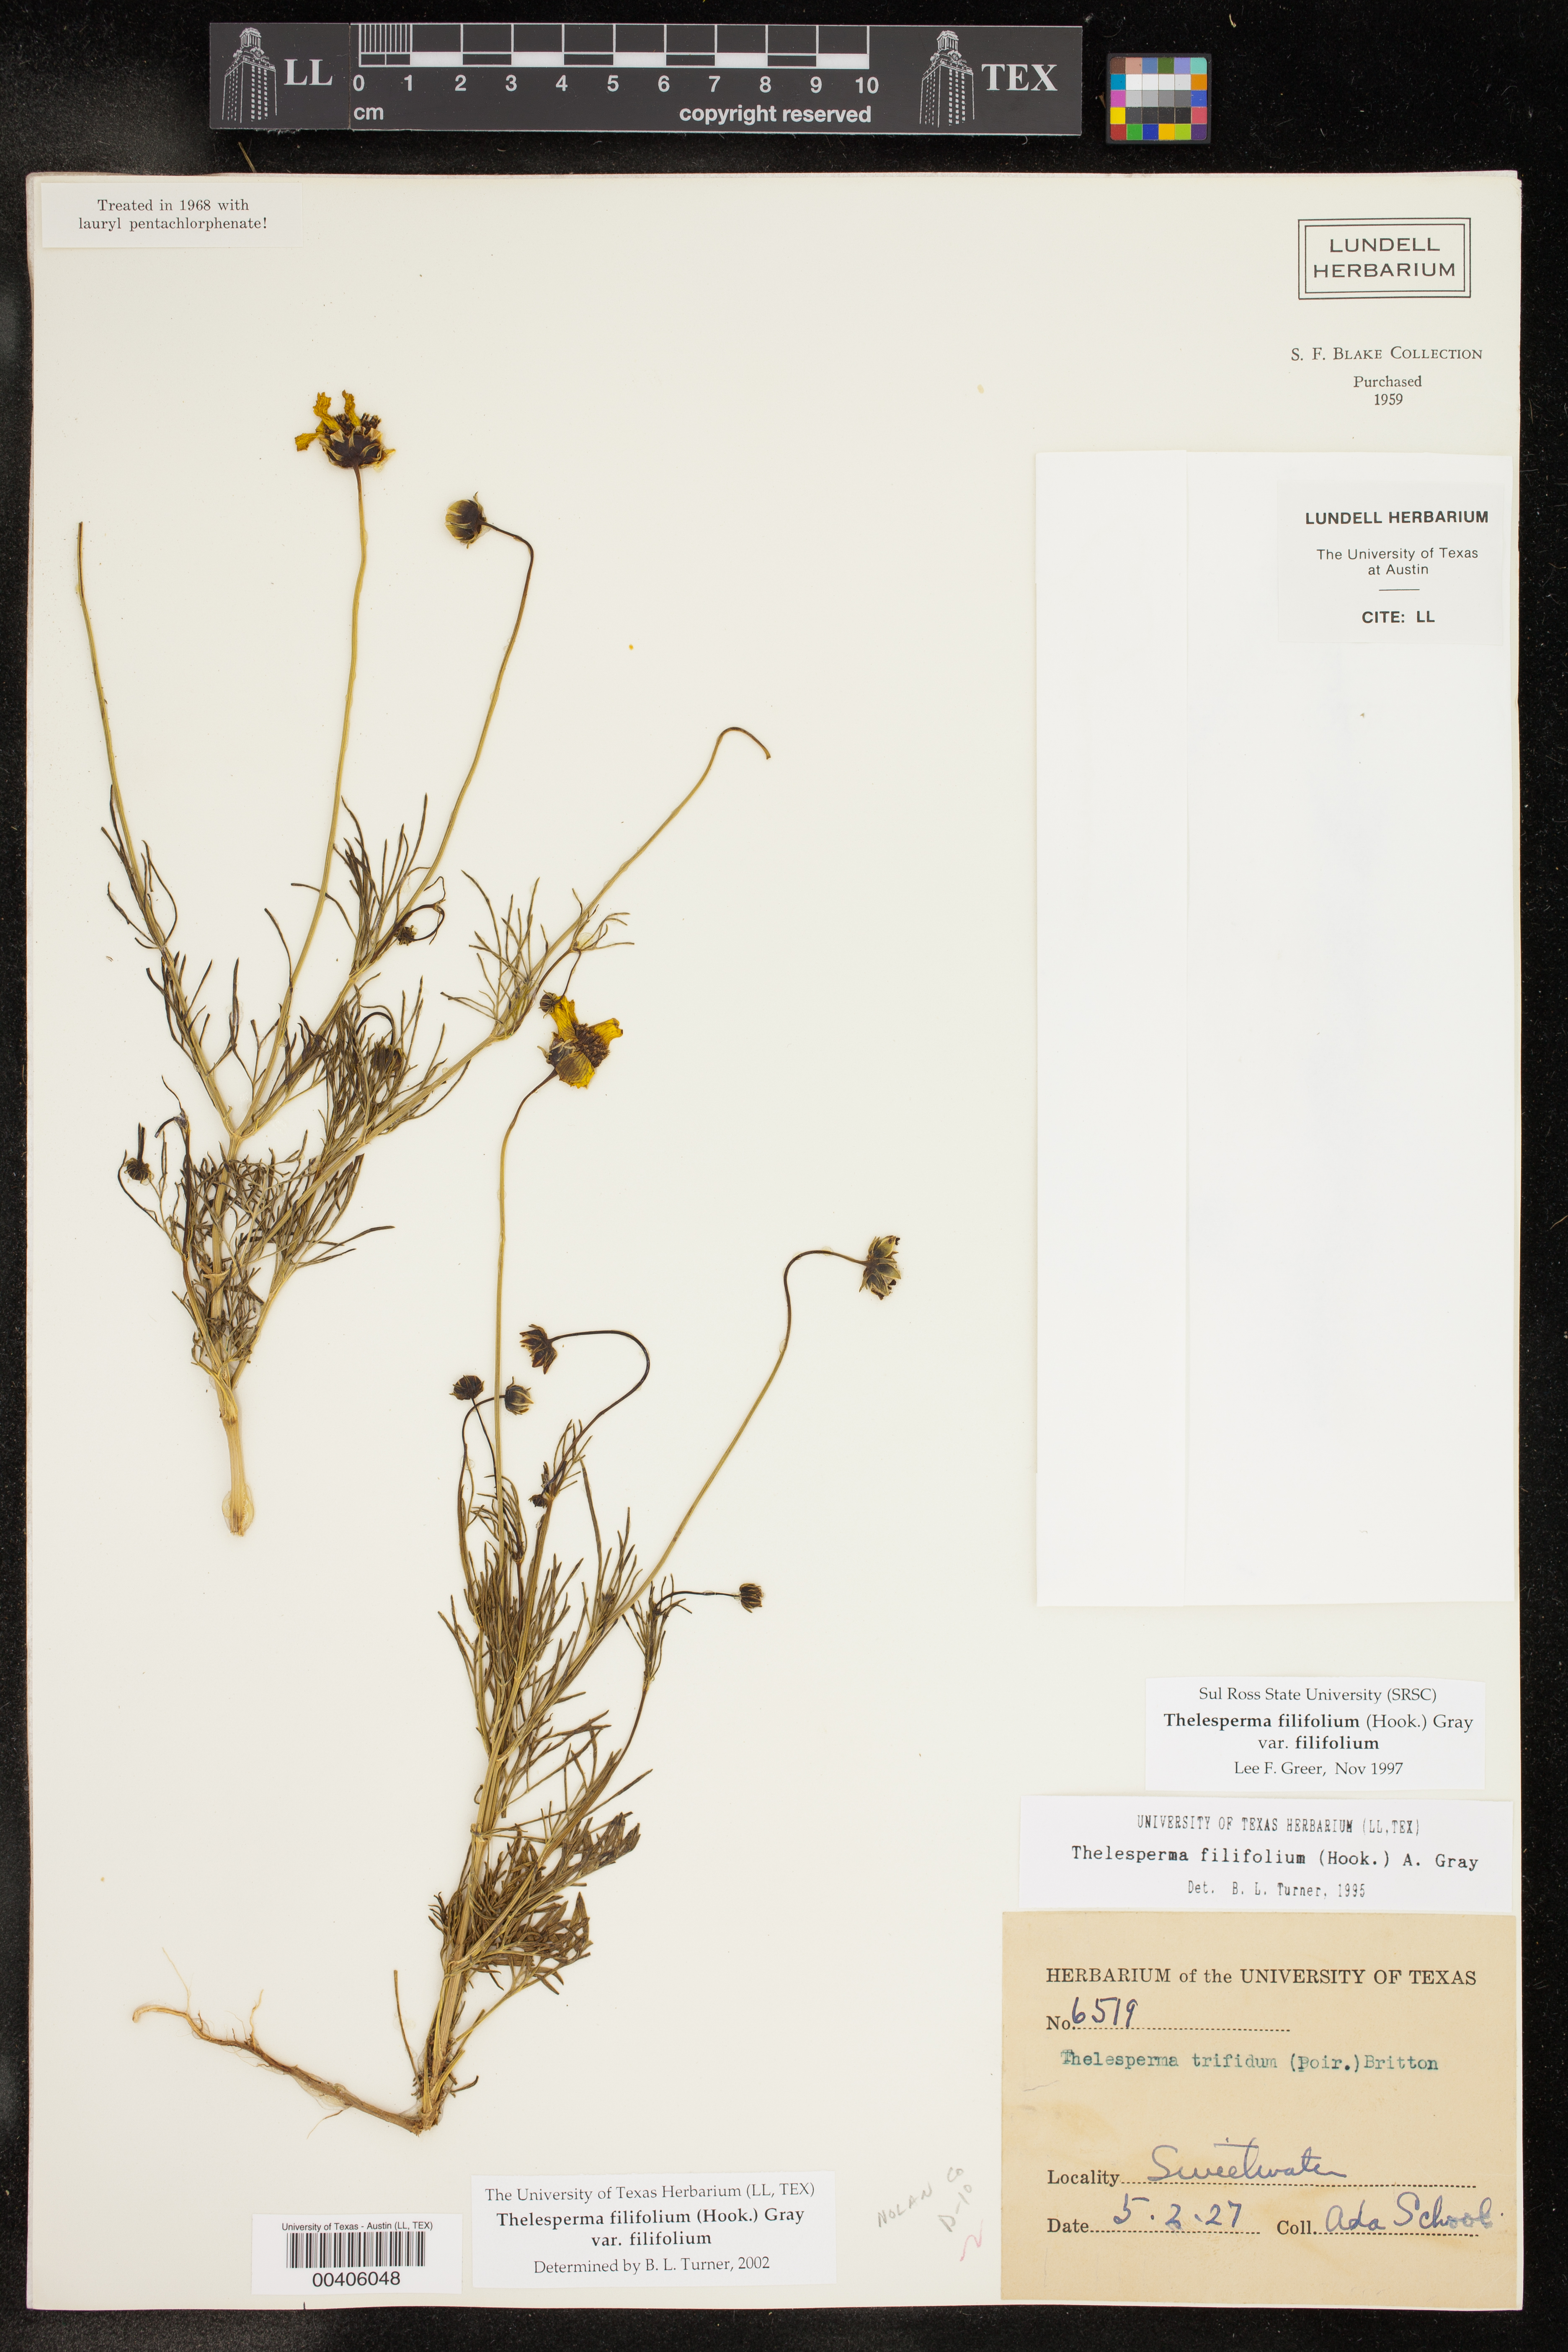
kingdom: Plantae
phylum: Tracheophyta
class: Magnoliopsida
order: Asterales
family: Asteraceae
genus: Thelesperma
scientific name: Thelesperma filifolium
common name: Stiff greenthread
